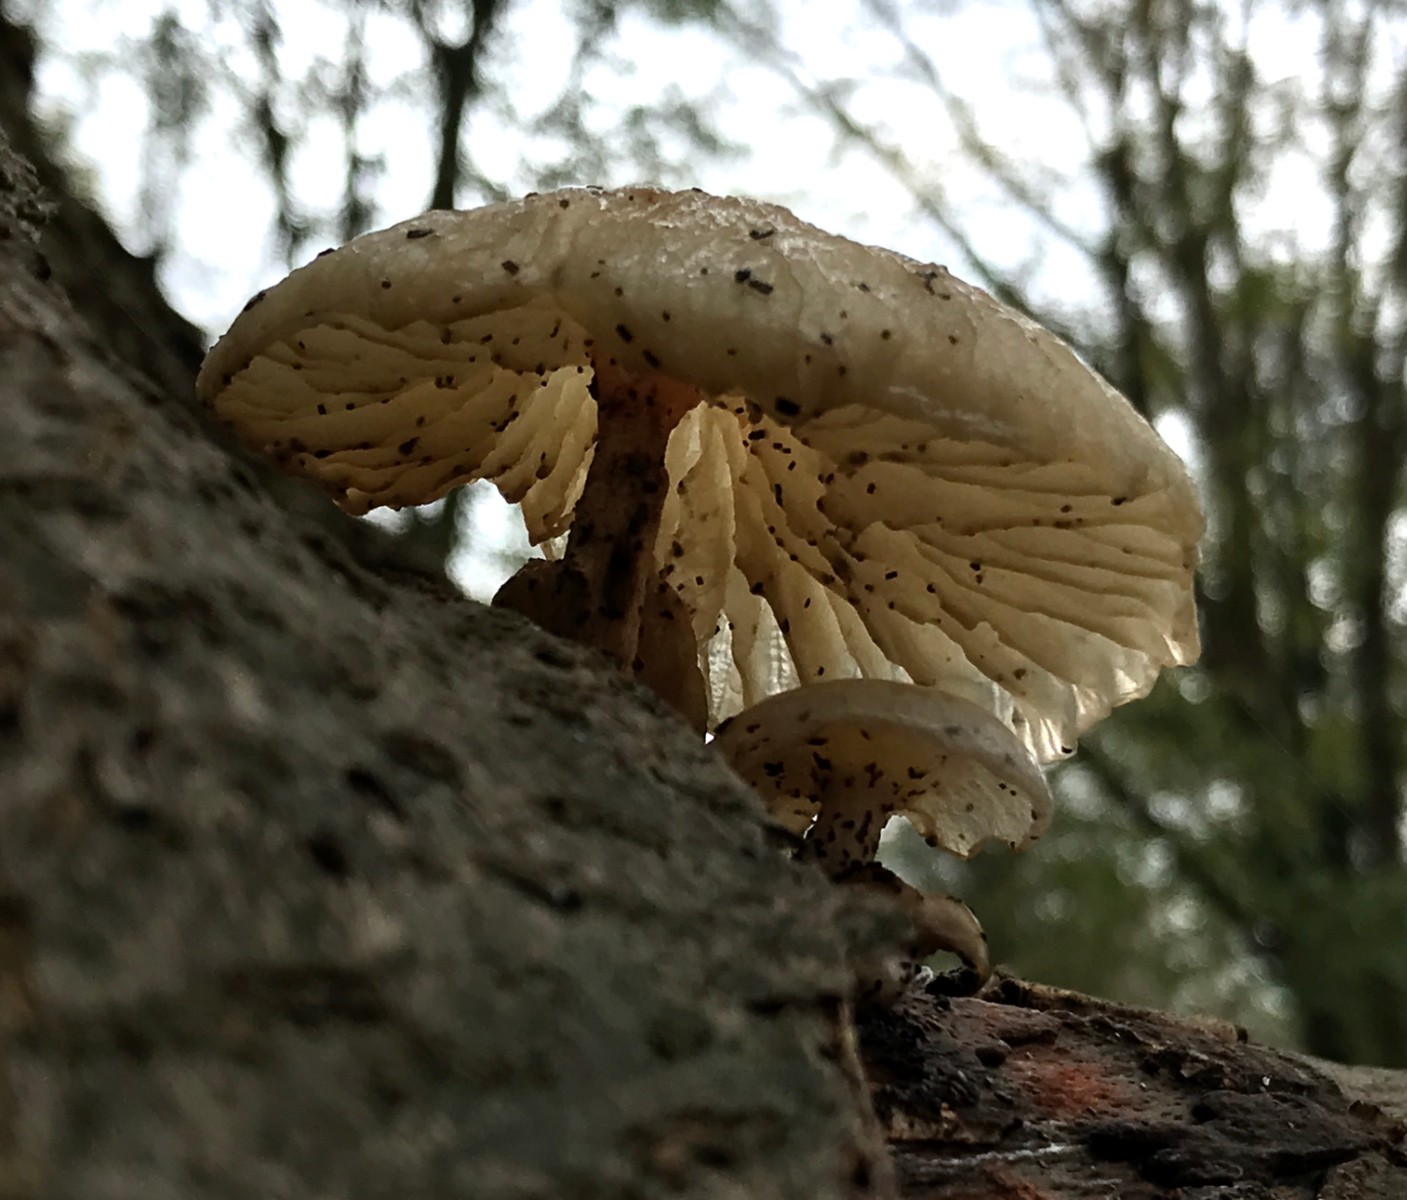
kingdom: Fungi
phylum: Basidiomycota
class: Agaricomycetes
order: Agaricales
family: Physalacriaceae
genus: Mucidula
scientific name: Mucidula mucida
